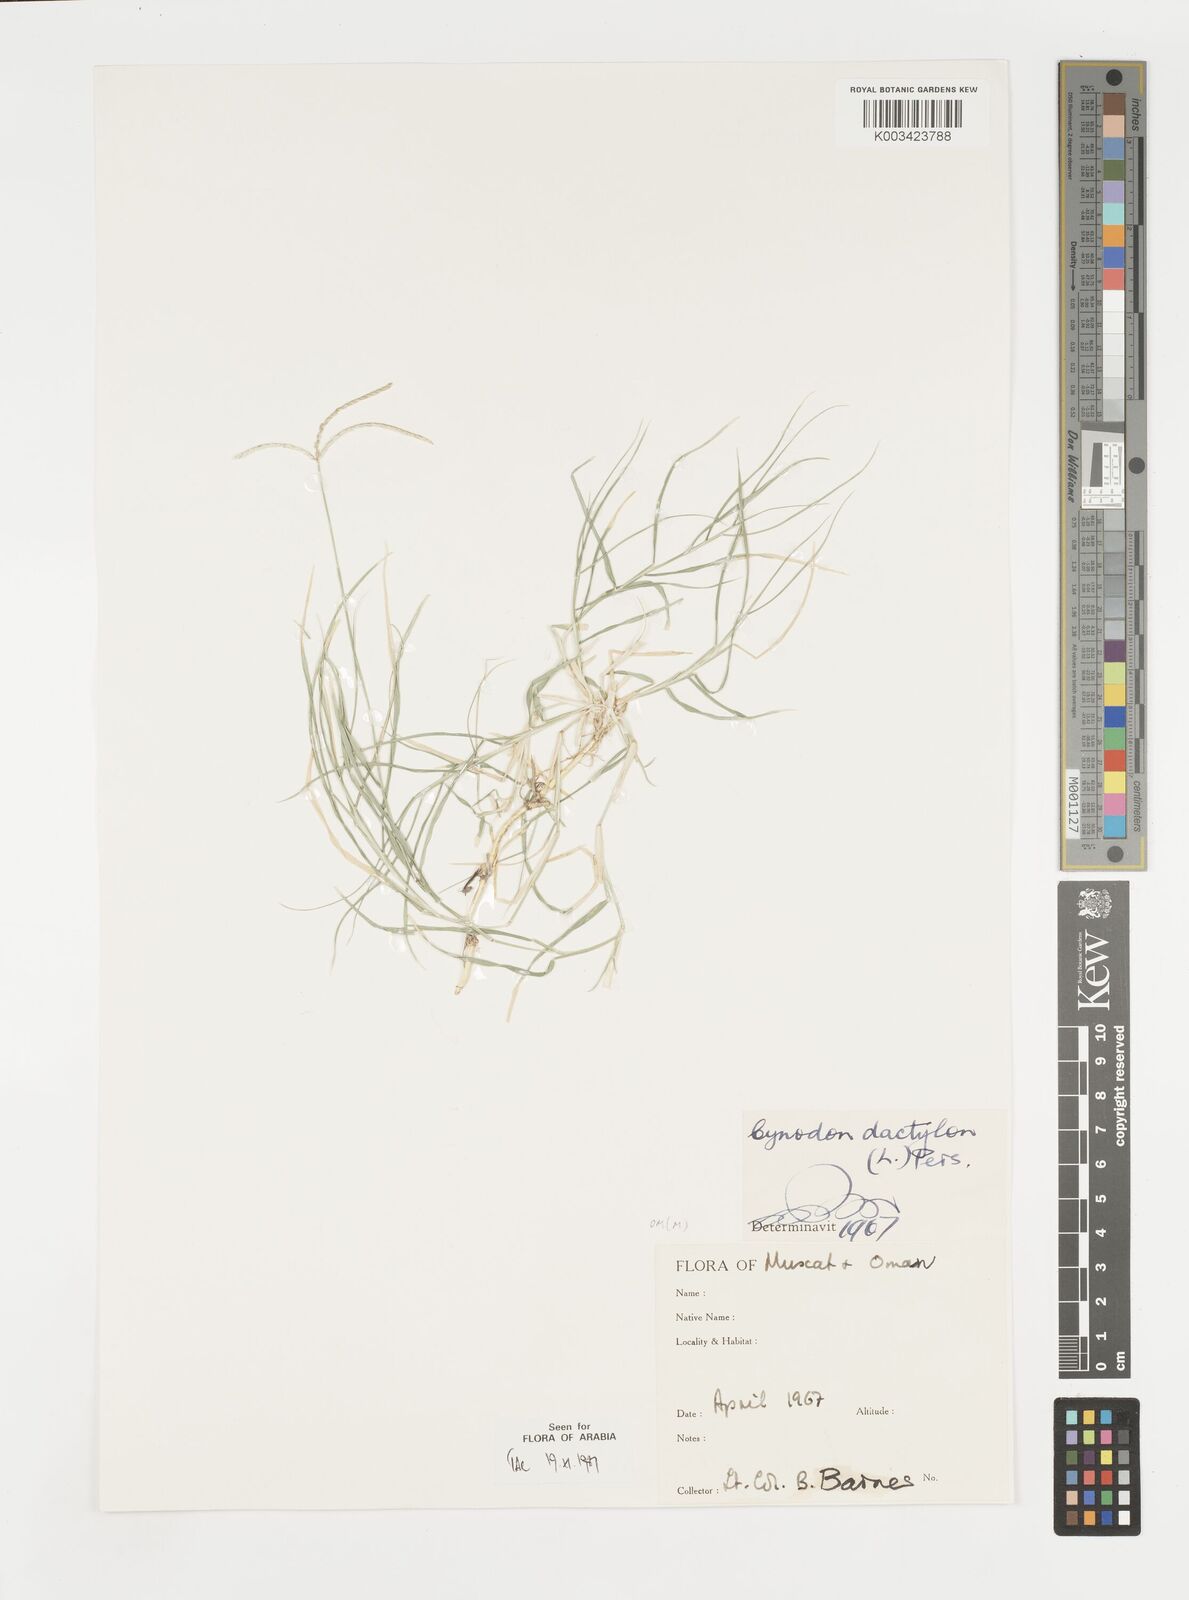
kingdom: Plantae
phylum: Tracheophyta
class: Liliopsida
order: Poales
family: Poaceae
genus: Cynodon
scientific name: Cynodon dactylon
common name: Bermuda grass
